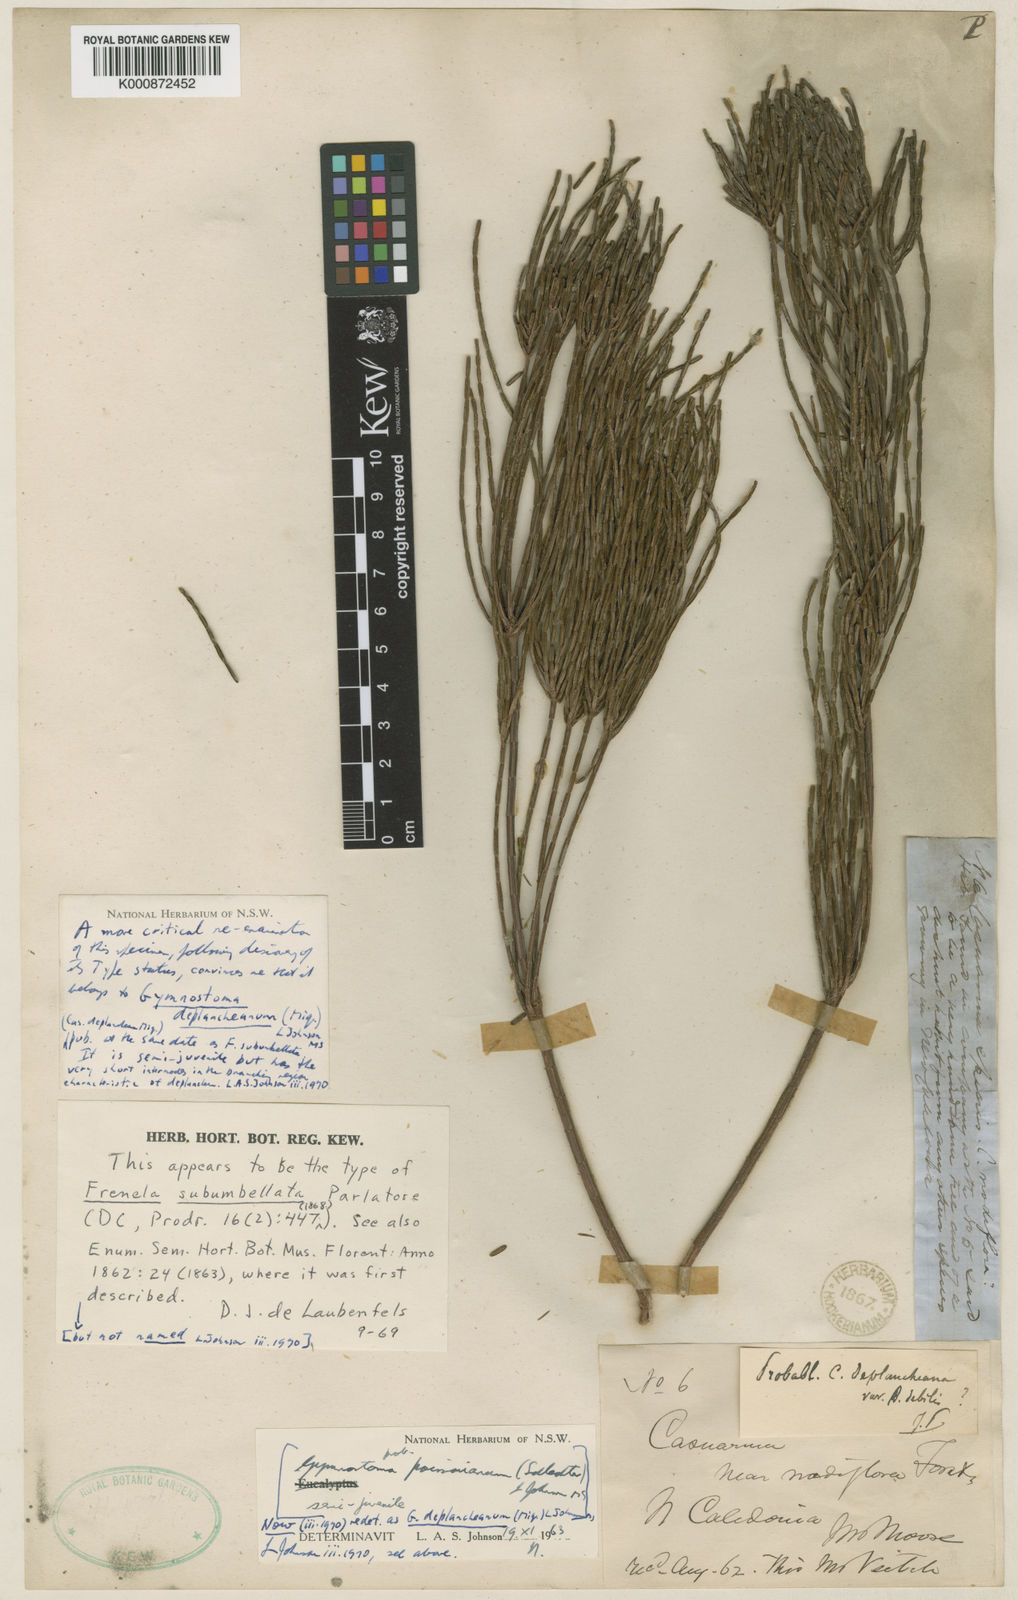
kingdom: Plantae
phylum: Tracheophyta
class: Magnoliopsida
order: Fagales
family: Casuarinaceae
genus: Gymnostoma
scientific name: Gymnostoma deplancheanum
